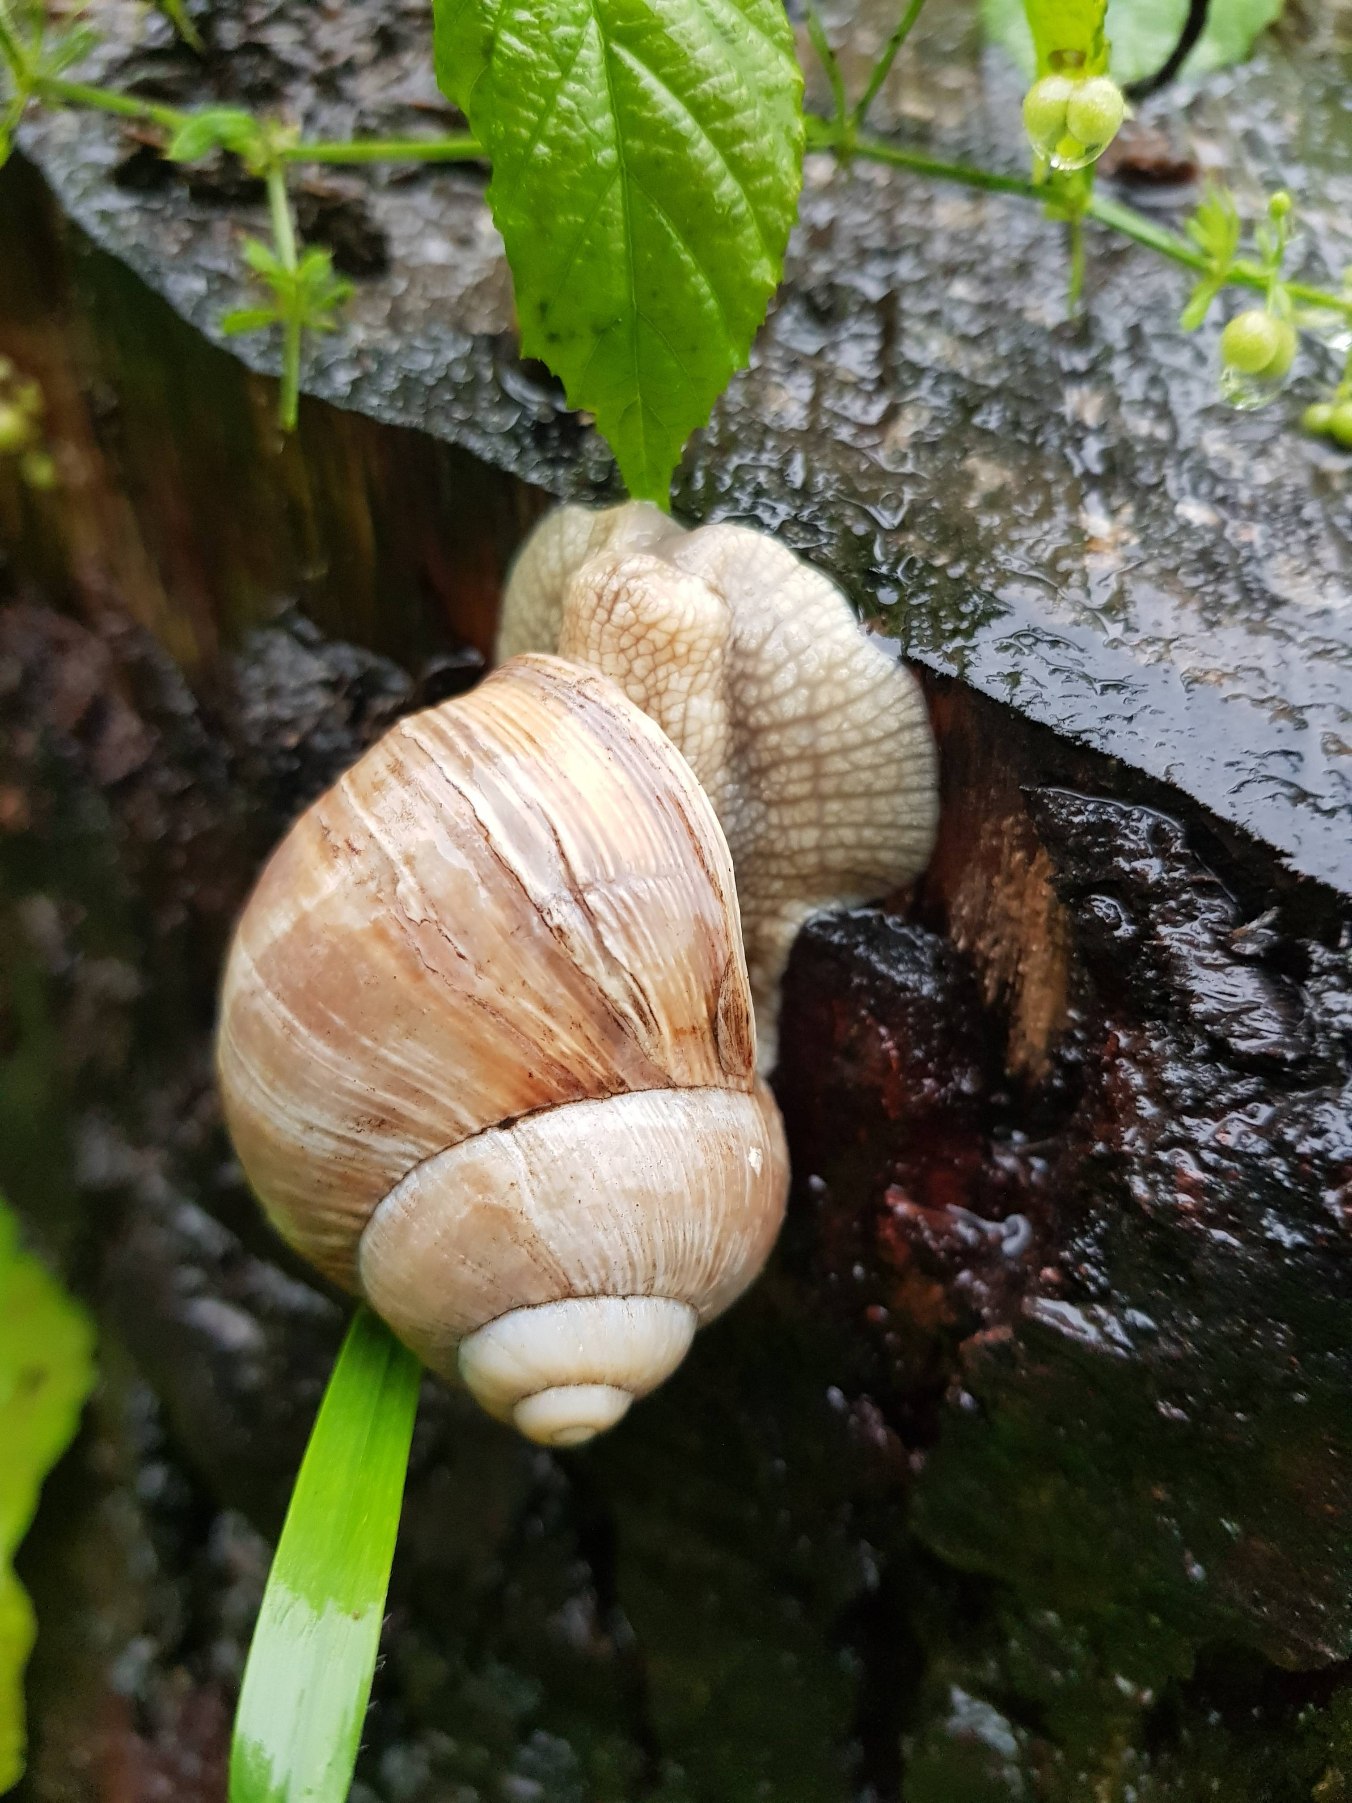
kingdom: Animalia
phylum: Mollusca
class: Gastropoda
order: Stylommatophora
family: Helicidae
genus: Helix
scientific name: Helix pomatia
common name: Vinbjergsnegl
